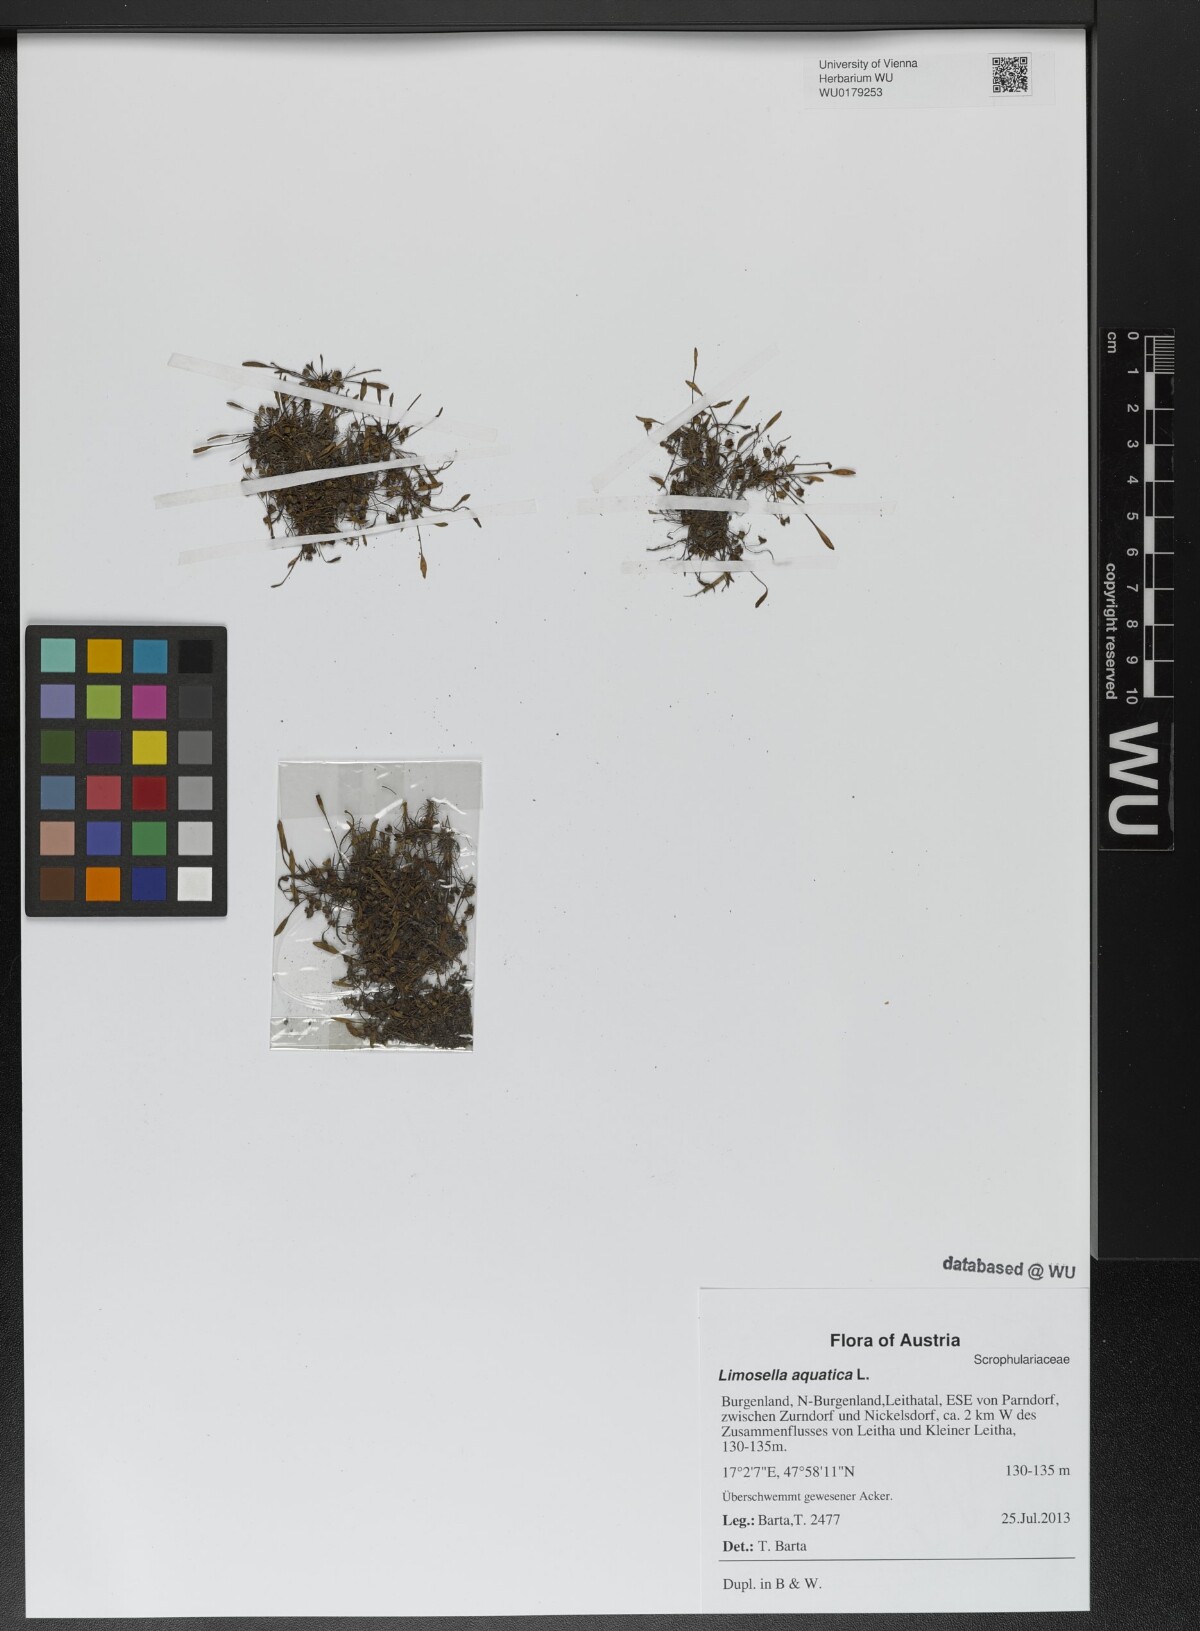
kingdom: Plantae
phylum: Tracheophyta
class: Magnoliopsida
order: Lamiales
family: Scrophulariaceae
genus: Limosella
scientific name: Limosella aquatica
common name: Mudwort
